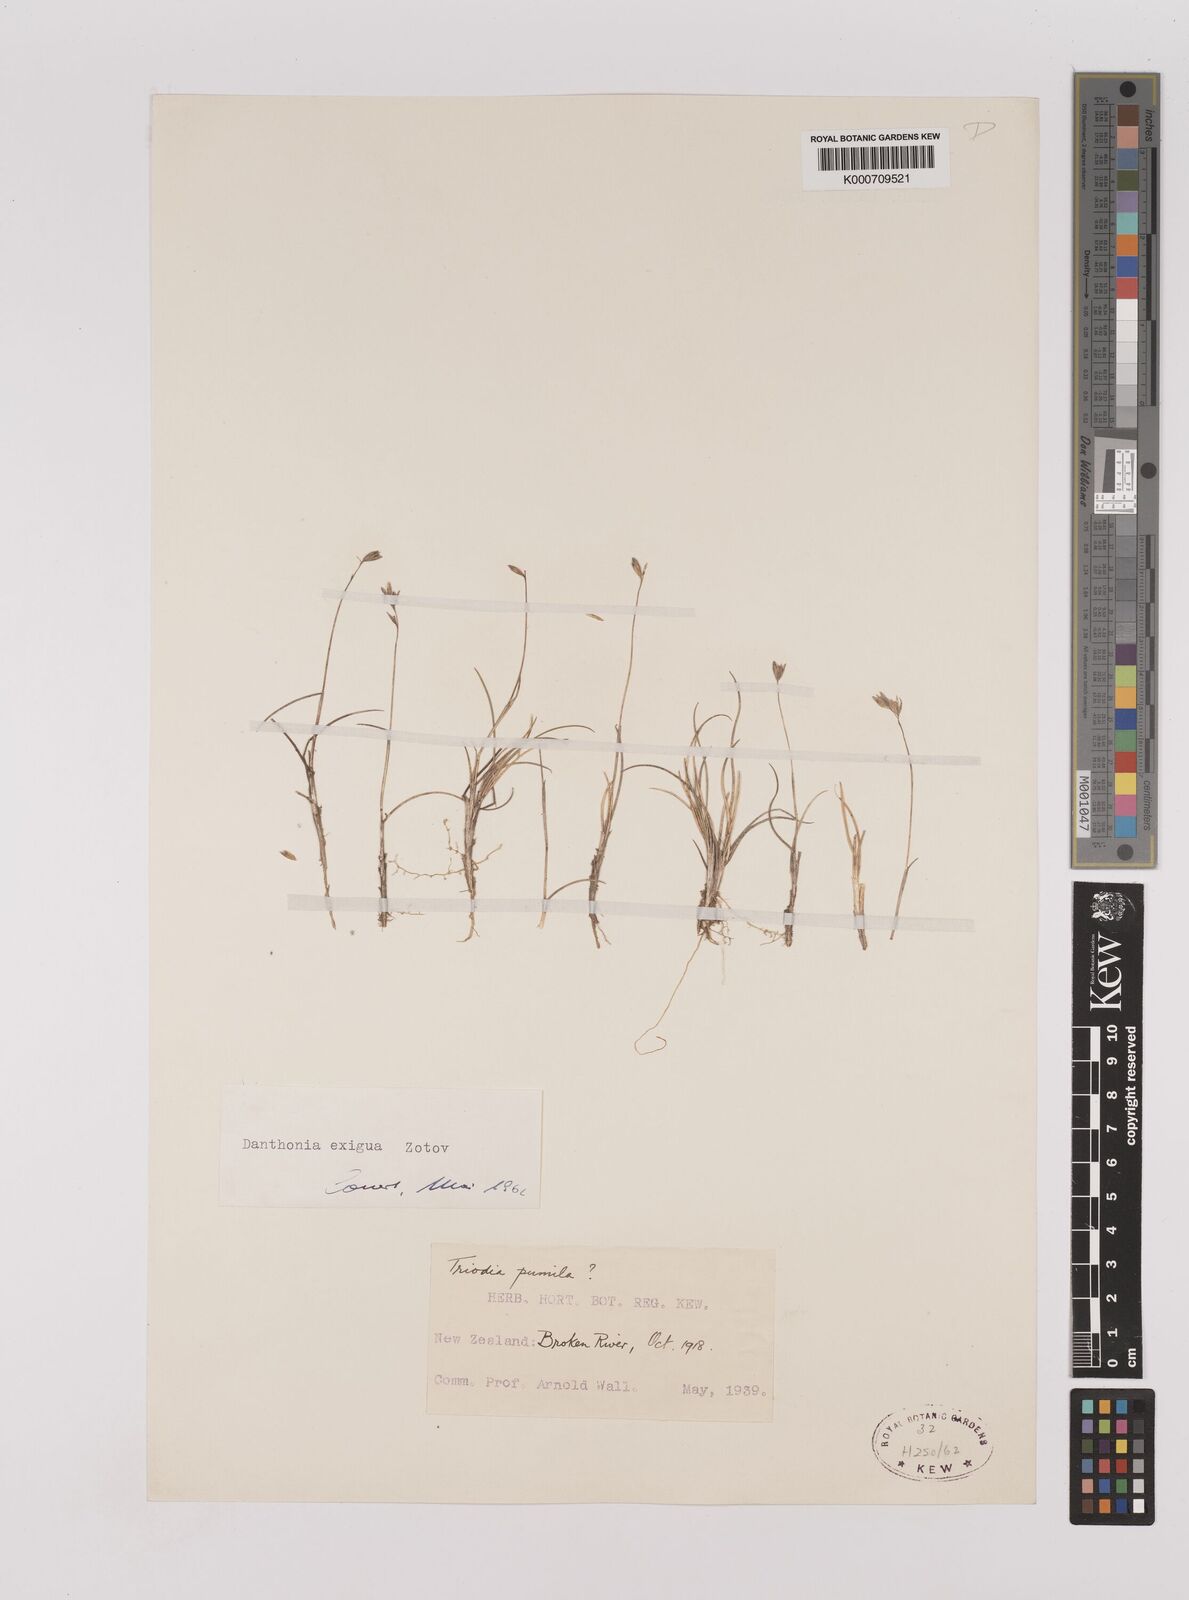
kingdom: Plantae
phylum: Tracheophyta
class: Liliopsida
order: Poales
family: Poaceae
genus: Rytidosperma
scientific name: Rytidosperma exiguum
